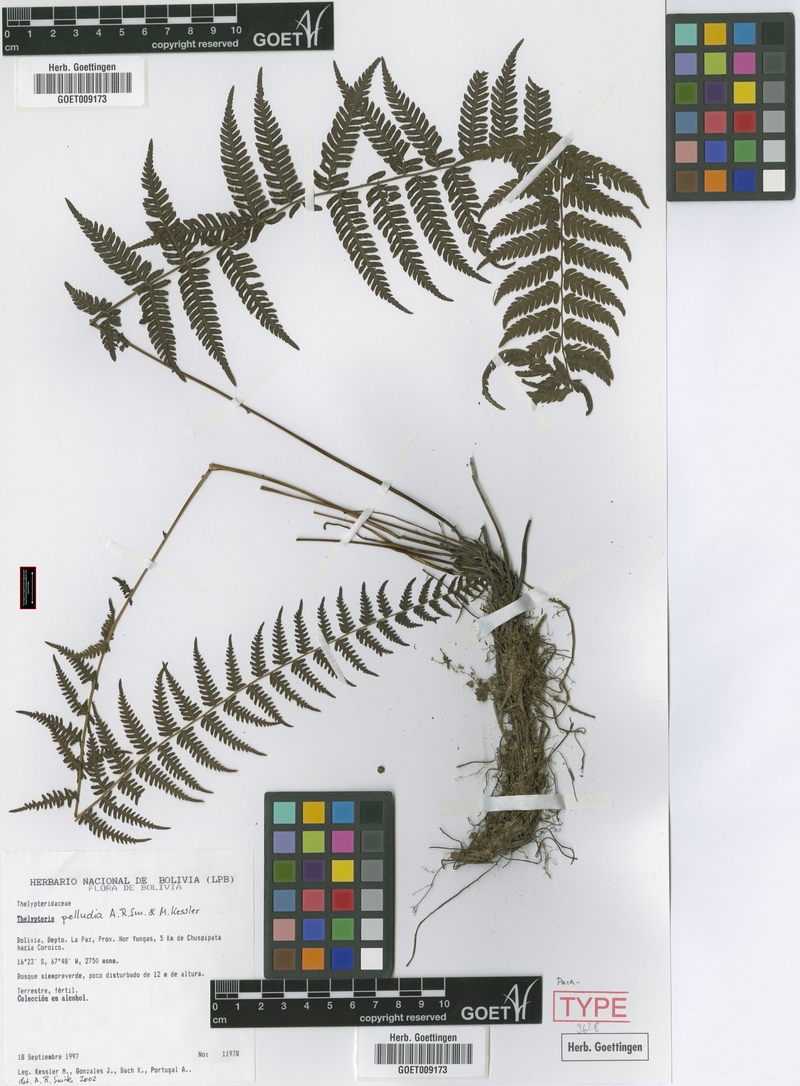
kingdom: Plantae
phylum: Tracheophyta
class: Polypodiopsida
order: Polypodiales
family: Thelypteridaceae
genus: Amauropelta
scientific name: Amauropelta pelludia
